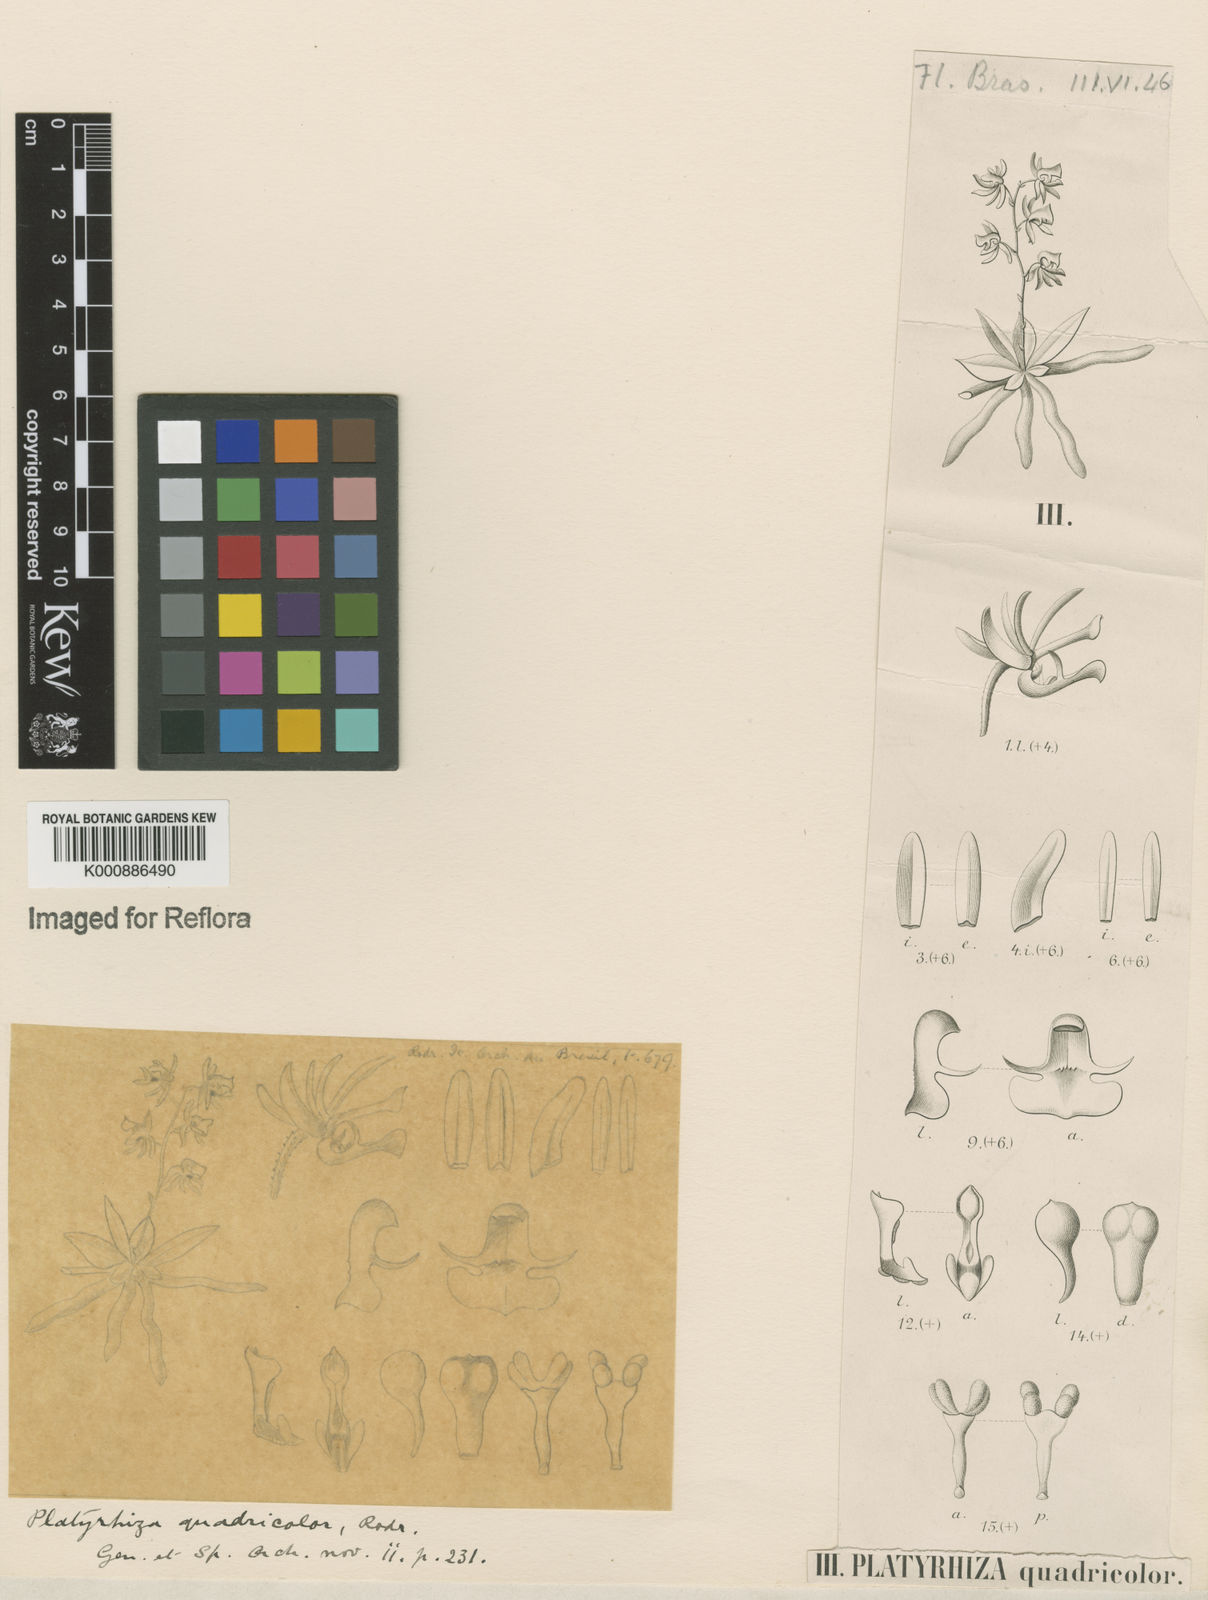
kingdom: Plantae
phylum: Tracheophyta
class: Liliopsida
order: Asparagales
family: Orchidaceae
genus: Platyrhiza
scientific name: Platyrhiza quadricolor
